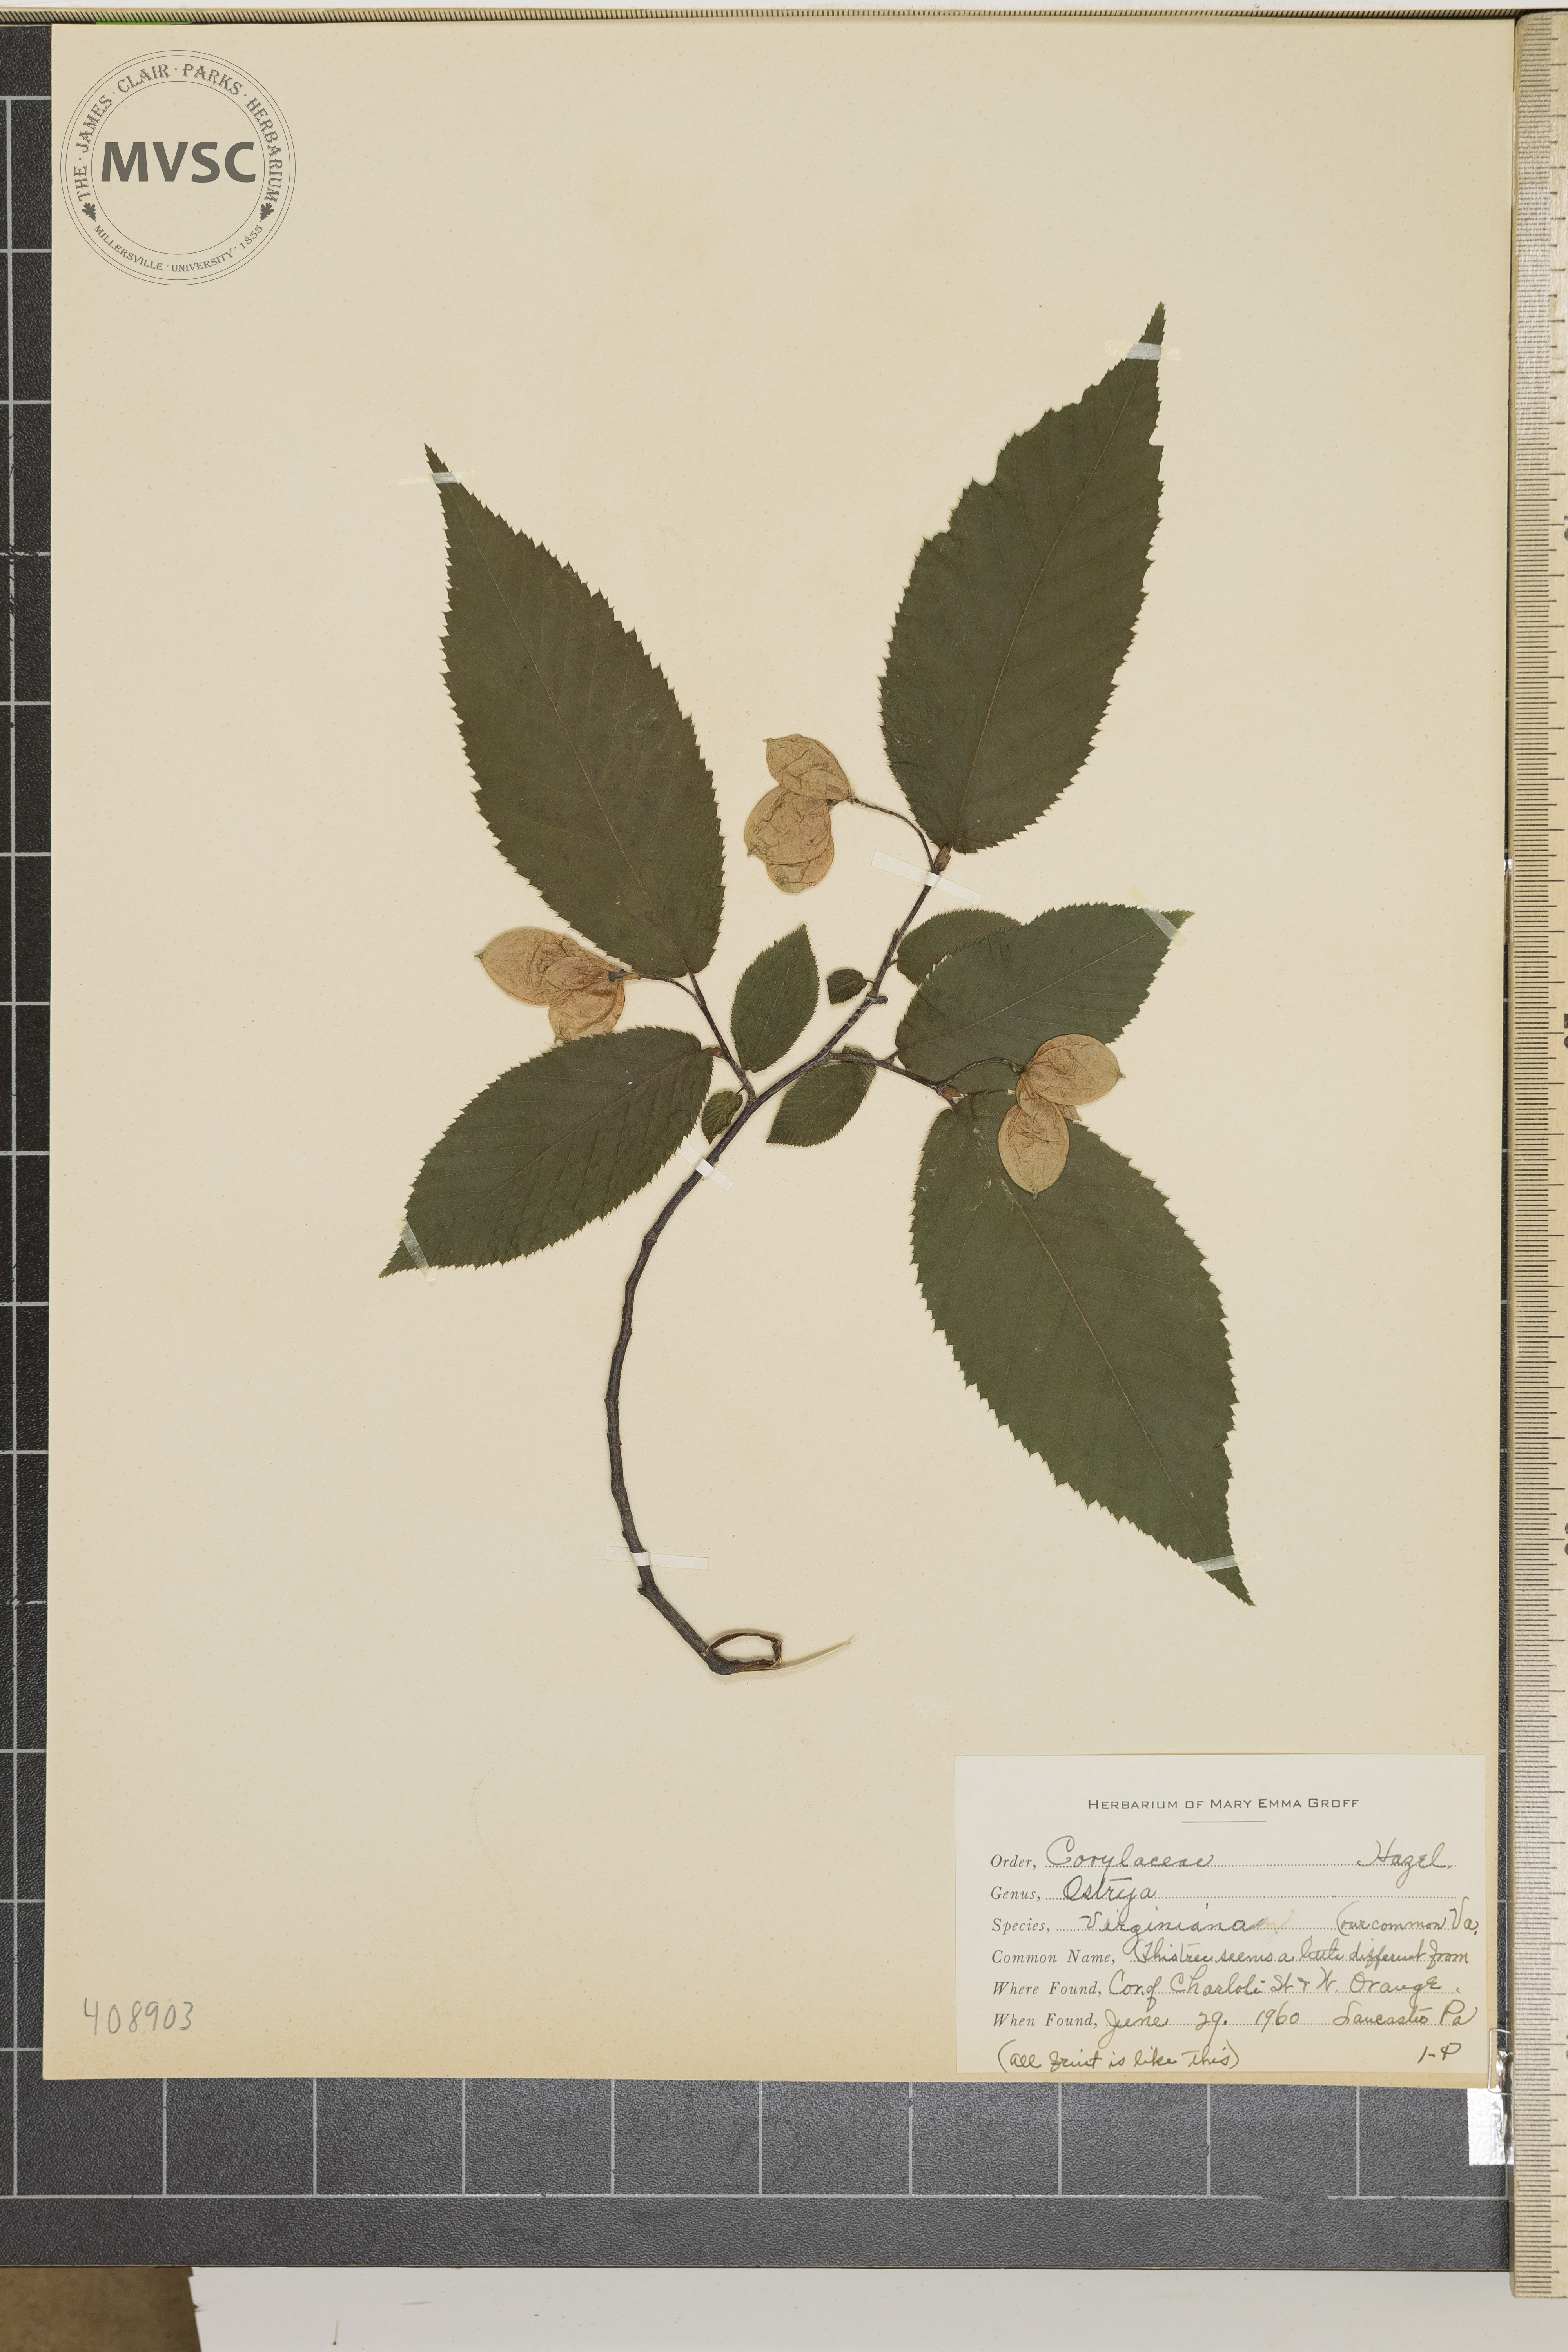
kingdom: Plantae
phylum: Tracheophyta
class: Magnoliopsida
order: Fagales
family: Betulaceae
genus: Ostrya
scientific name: Ostrya virginiana
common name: Hop Hornbeam
